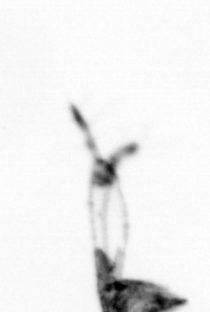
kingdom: Animalia
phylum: Arthropoda
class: Copepoda
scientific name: Copepoda
